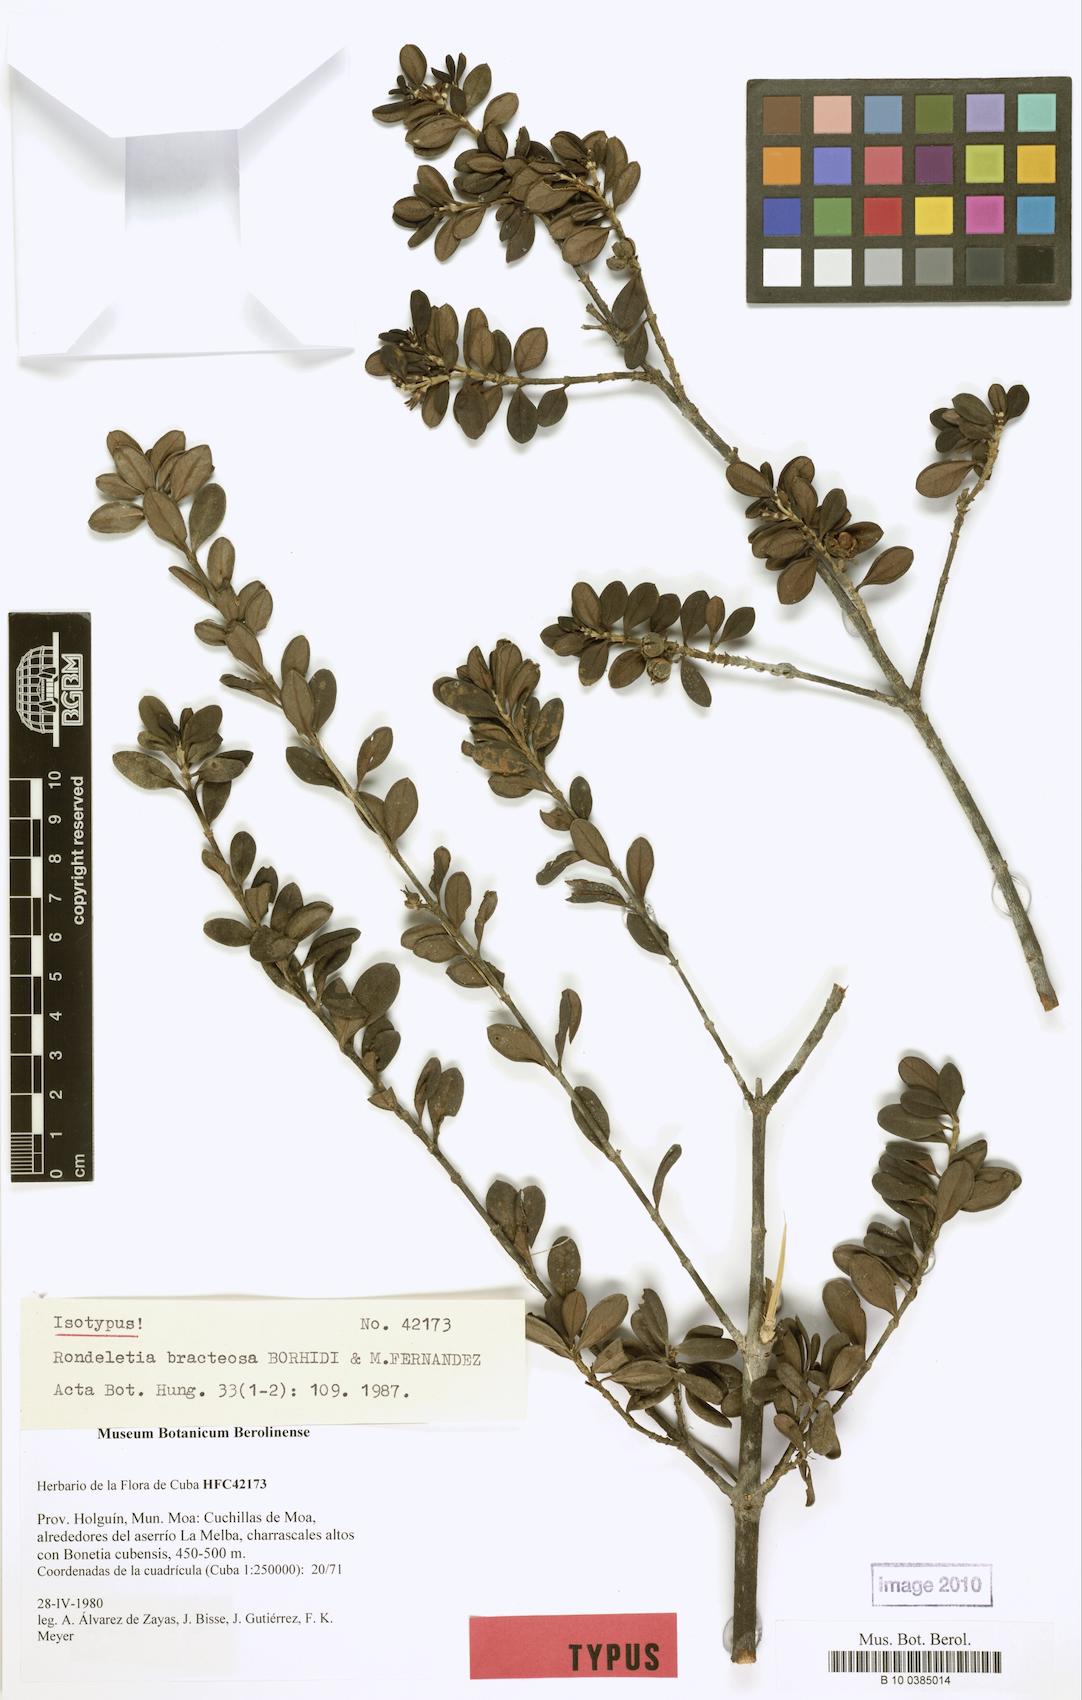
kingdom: Plantae
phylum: Tracheophyta
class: Magnoliopsida
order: Gentianales
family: Rubiaceae
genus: Rondeletia
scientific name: Rondeletia bracteosa
